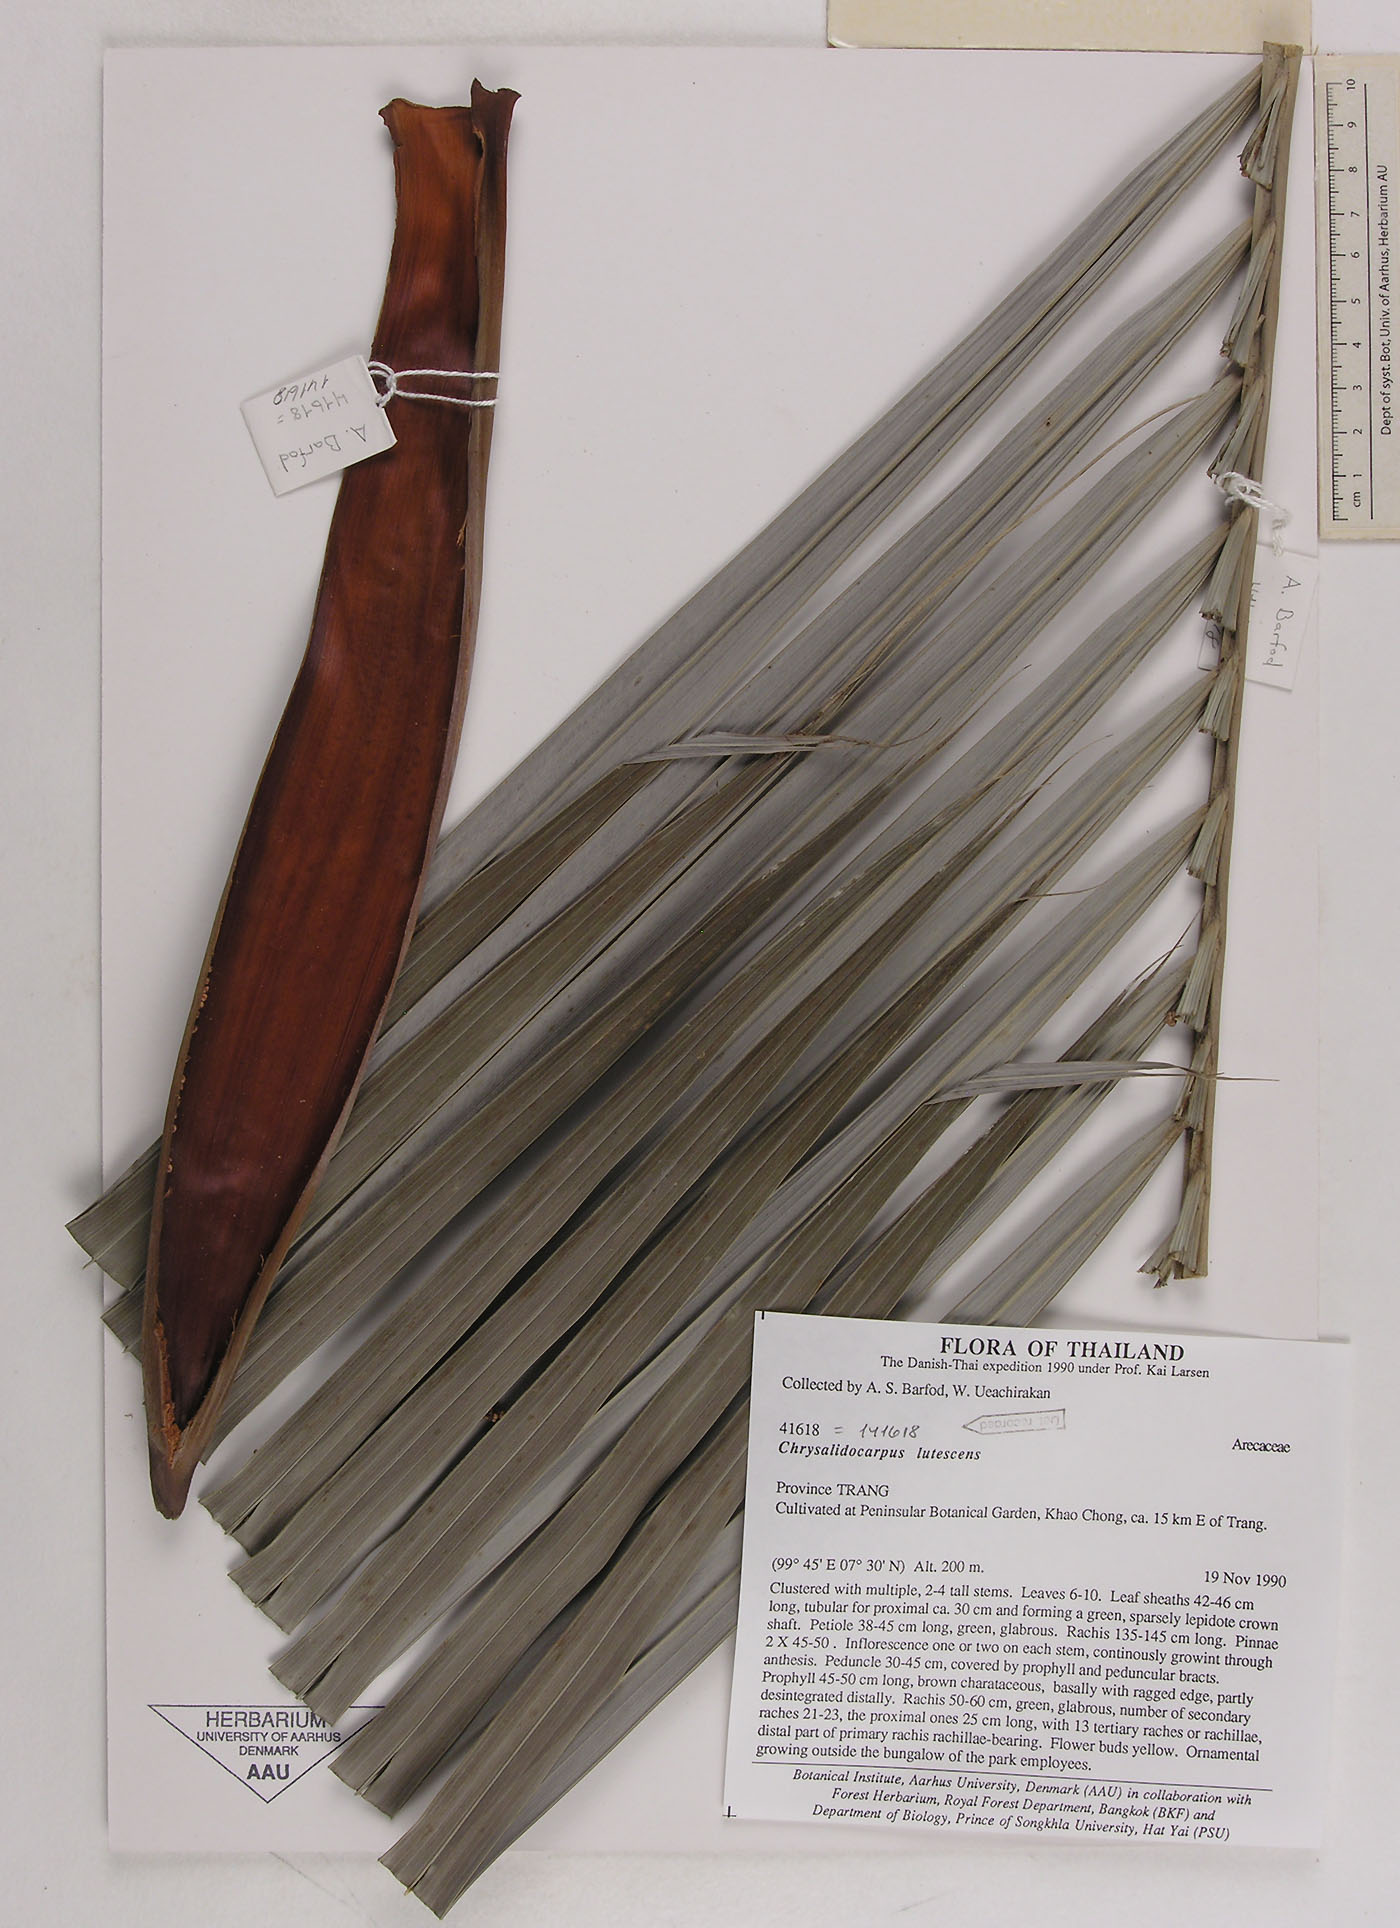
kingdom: Plantae
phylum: Tracheophyta
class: Liliopsida
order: Arecales
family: Arecaceae
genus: Dypsis
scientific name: Dypsis lutescens
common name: Yellow butterfly palm
